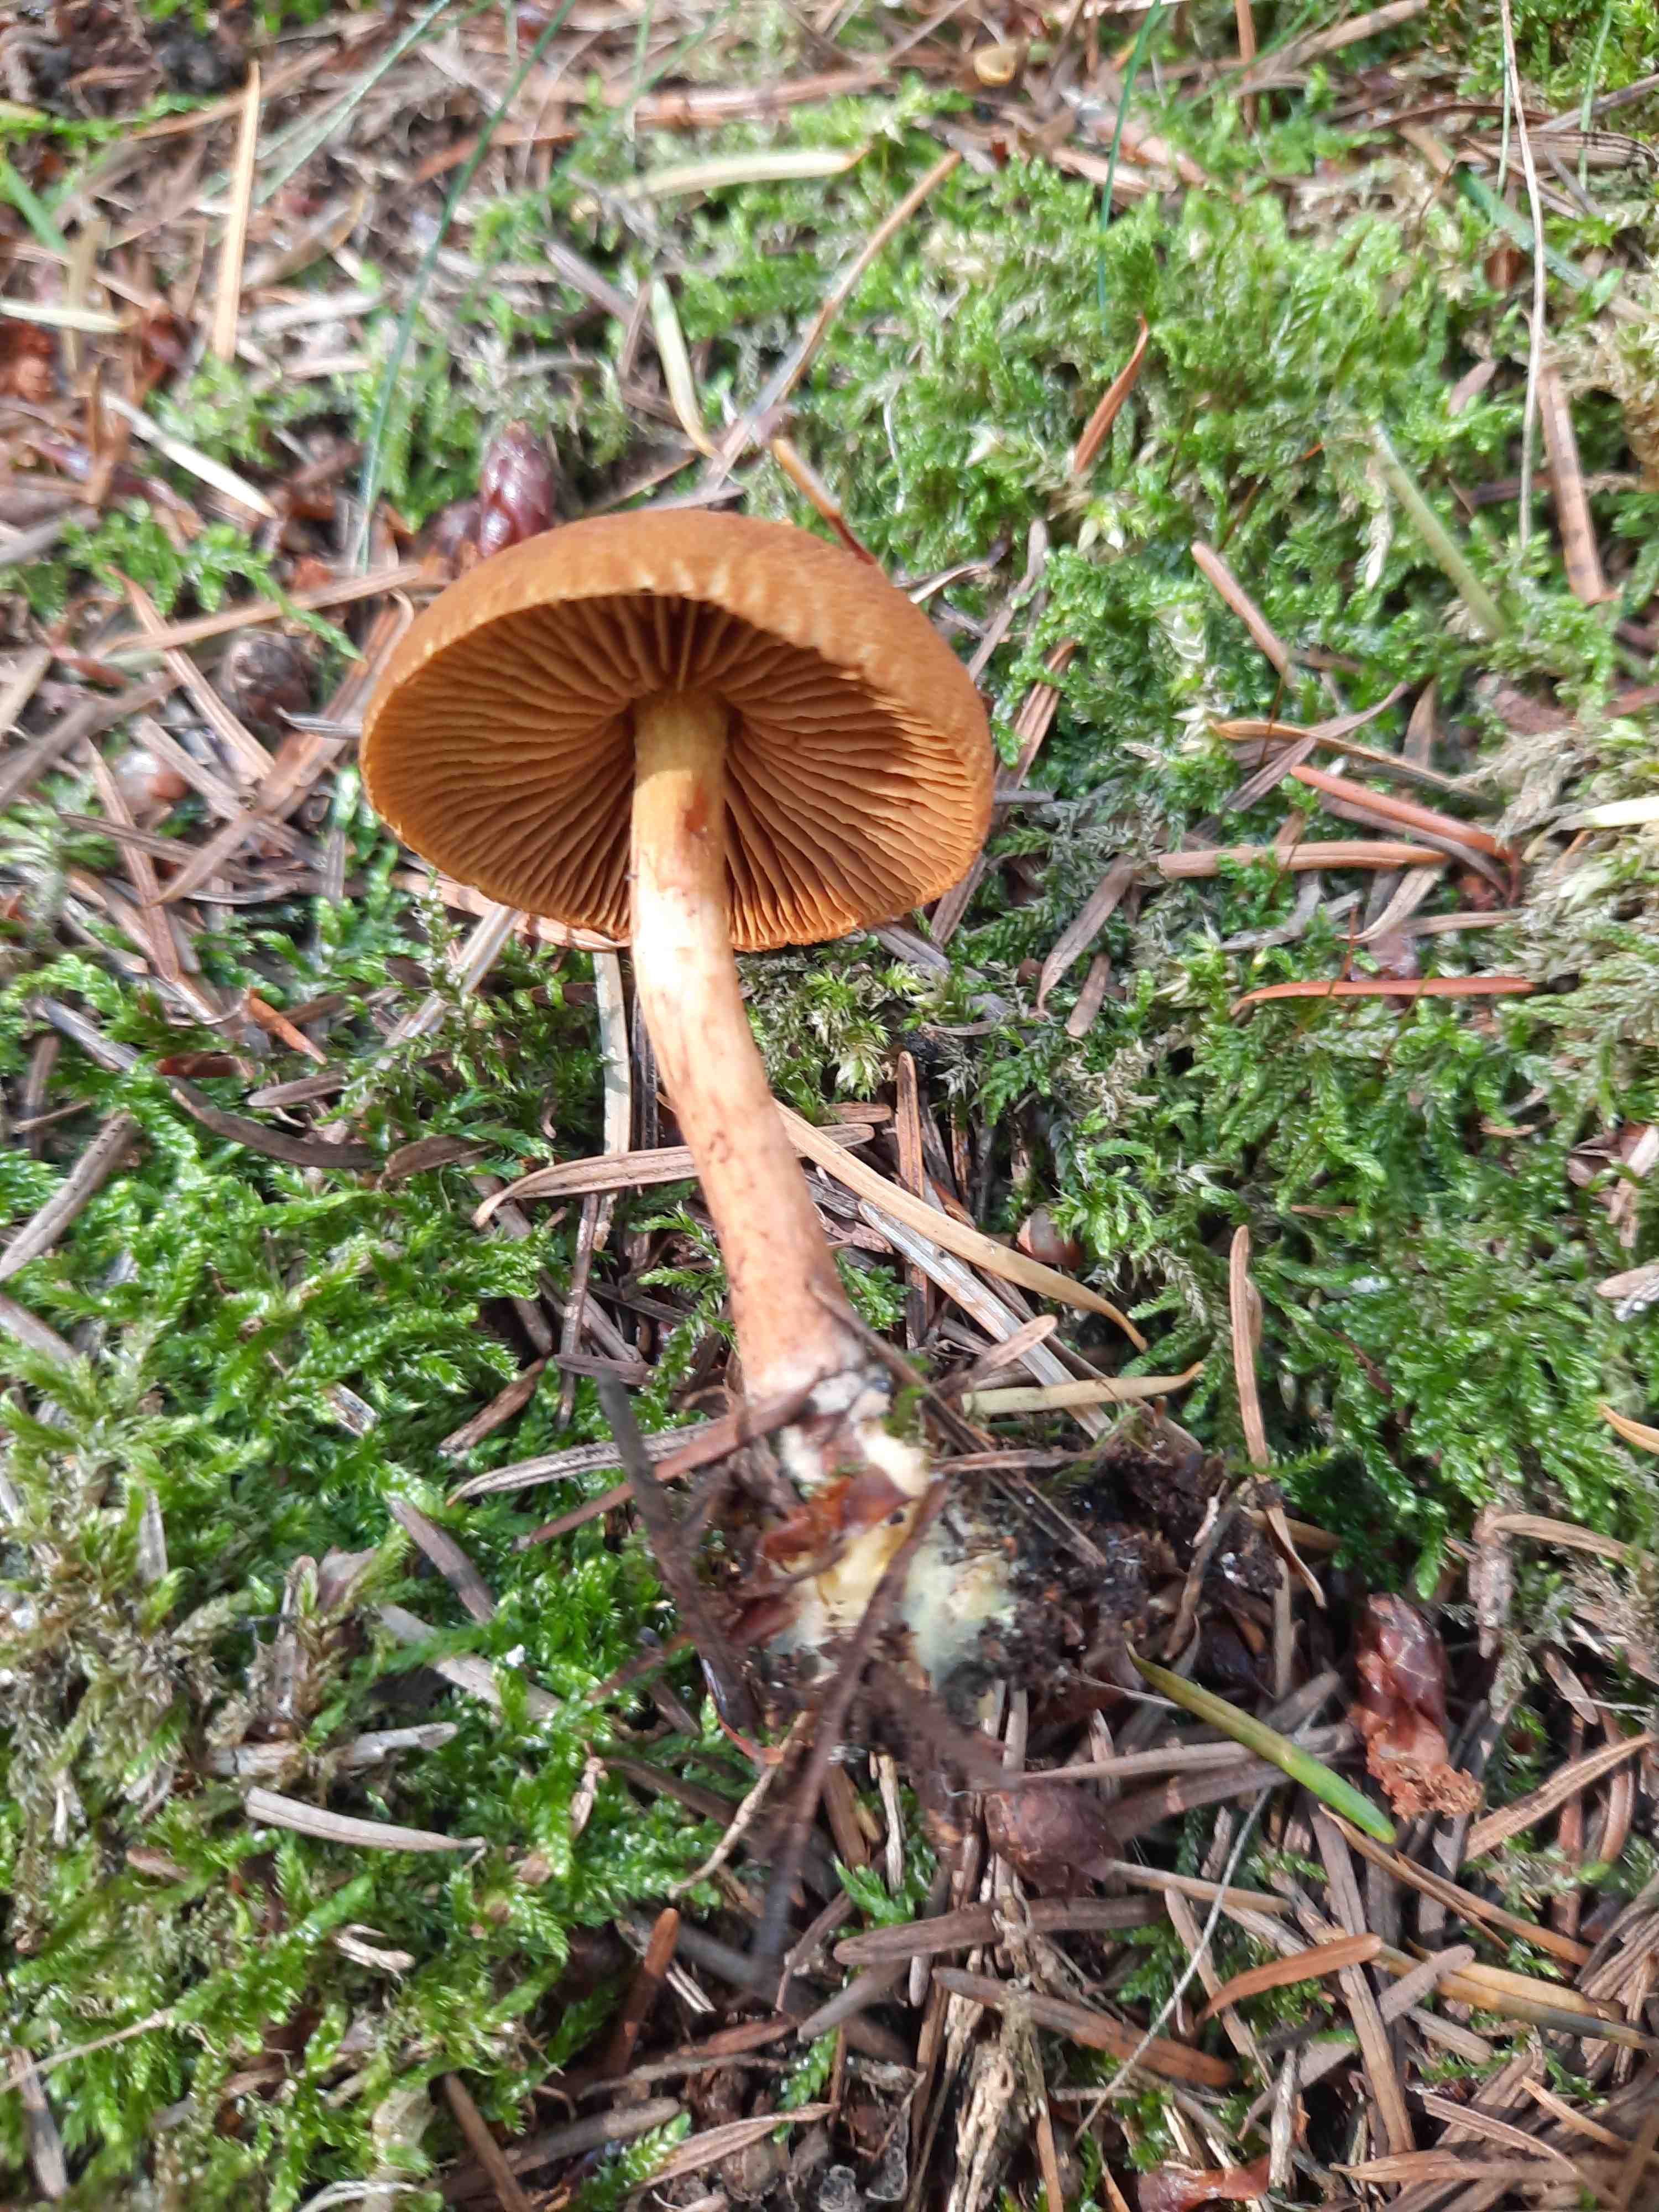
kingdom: Fungi
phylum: Basidiomycota
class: Agaricomycetes
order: Agaricales
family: Cortinariaceae
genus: Cortinarius
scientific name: Cortinarius
